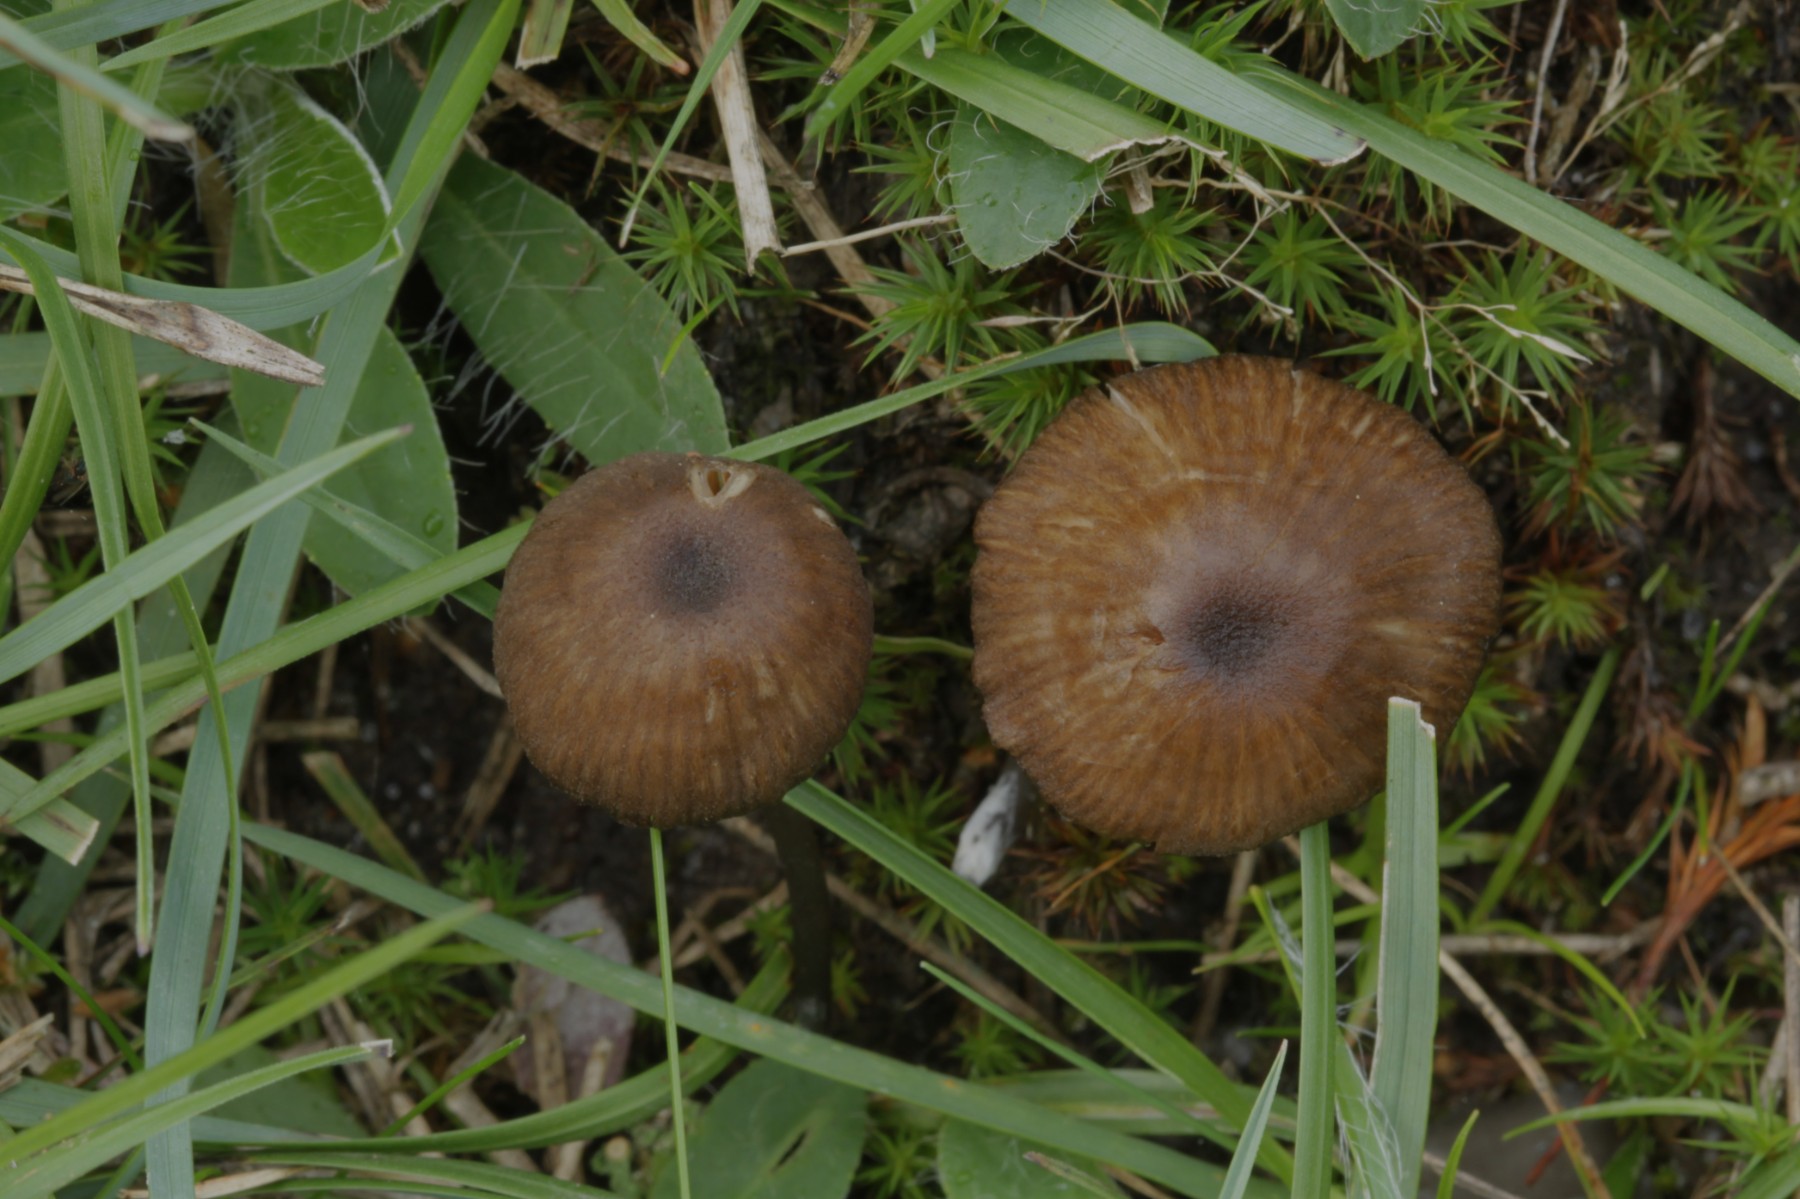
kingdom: Fungi
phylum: Basidiomycota
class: Agaricomycetes
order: Agaricales
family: Entolomataceae
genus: Entoloma
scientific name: Entoloma
